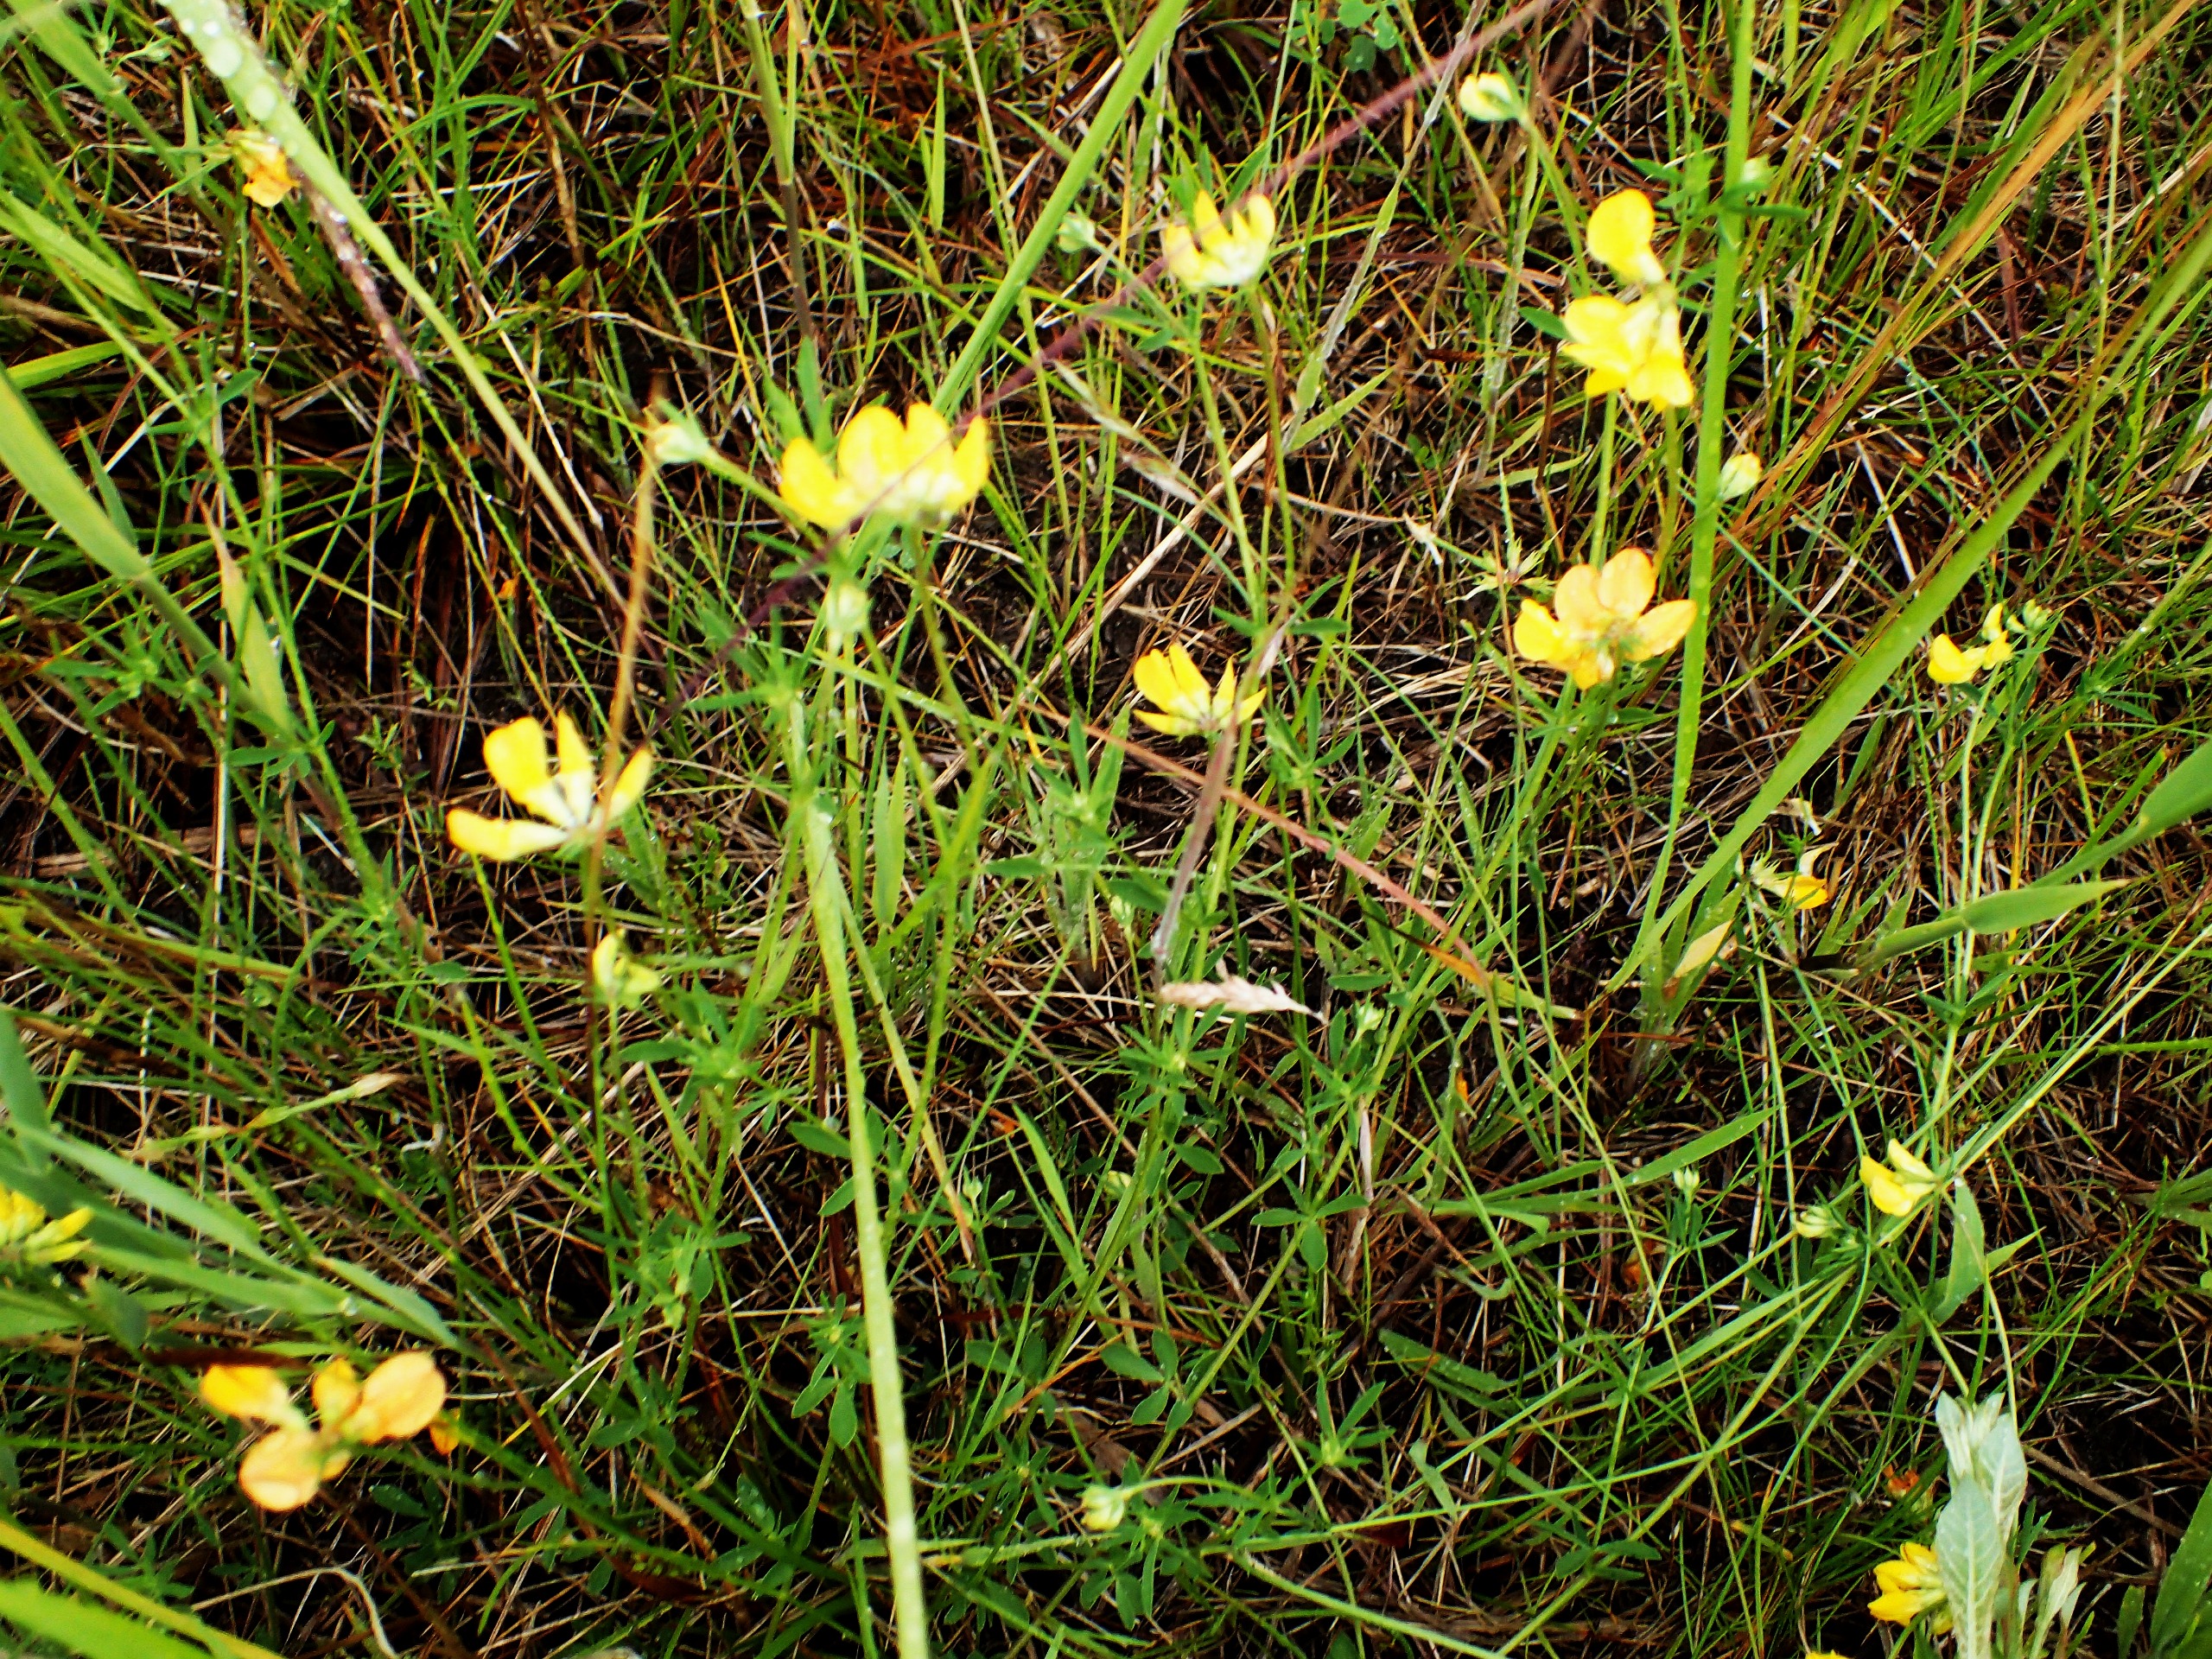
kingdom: Plantae
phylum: Tracheophyta
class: Magnoliopsida
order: Fabales
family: Fabaceae
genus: Lotus
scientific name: Lotus tenuis
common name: Smalbladet kællingetand
